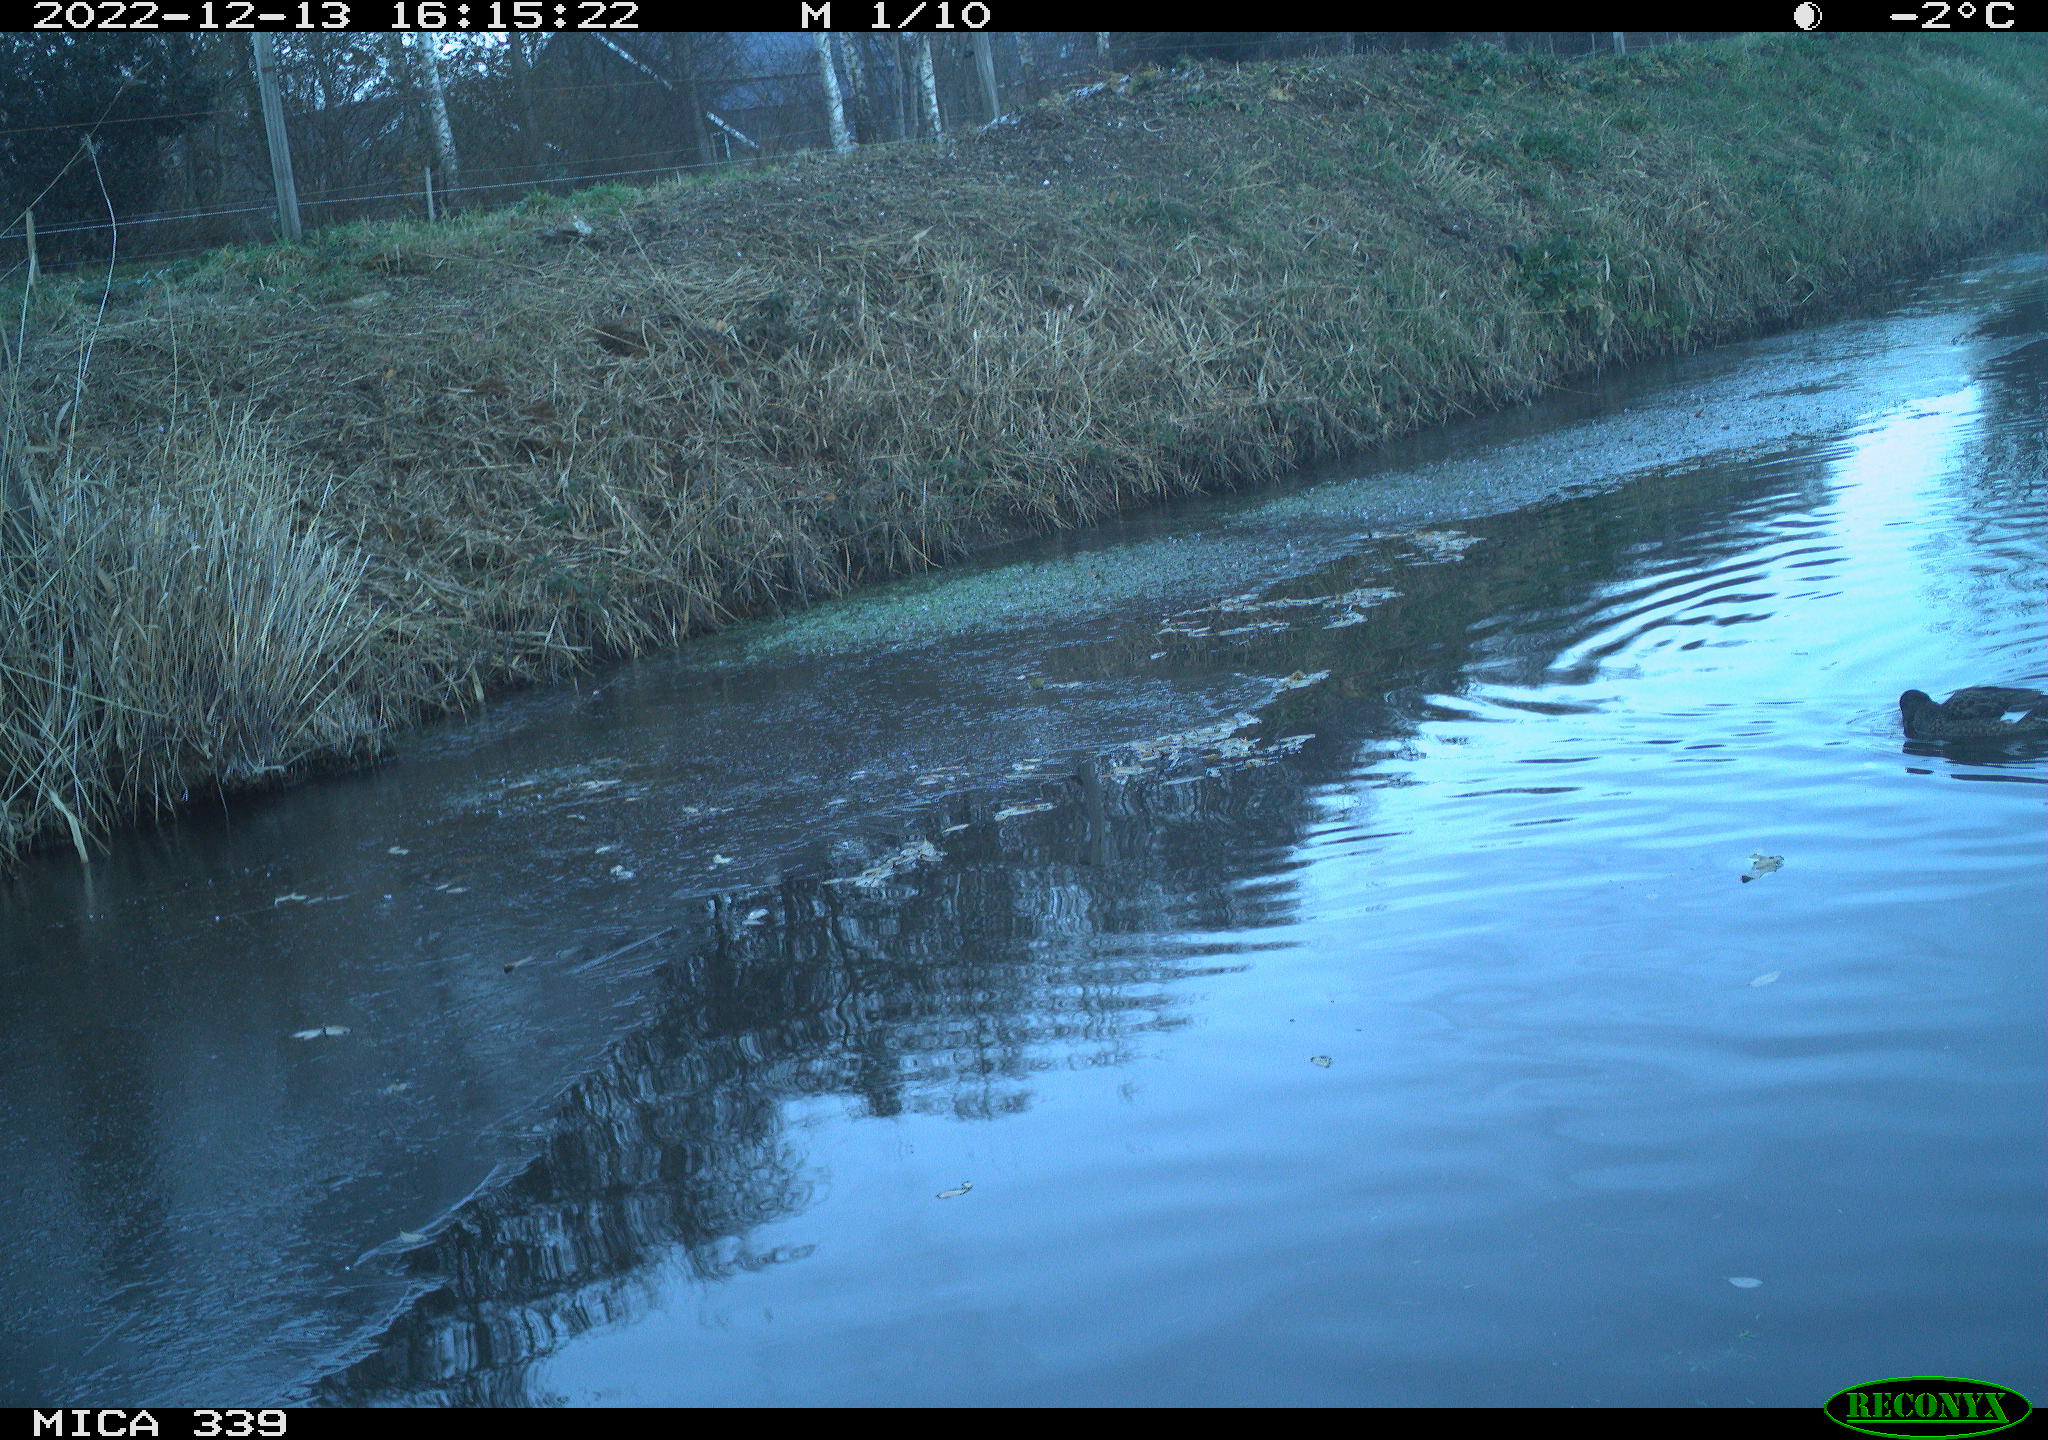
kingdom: Animalia
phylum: Chordata
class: Aves
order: Anseriformes
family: Anatidae
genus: Anas
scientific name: Anas
